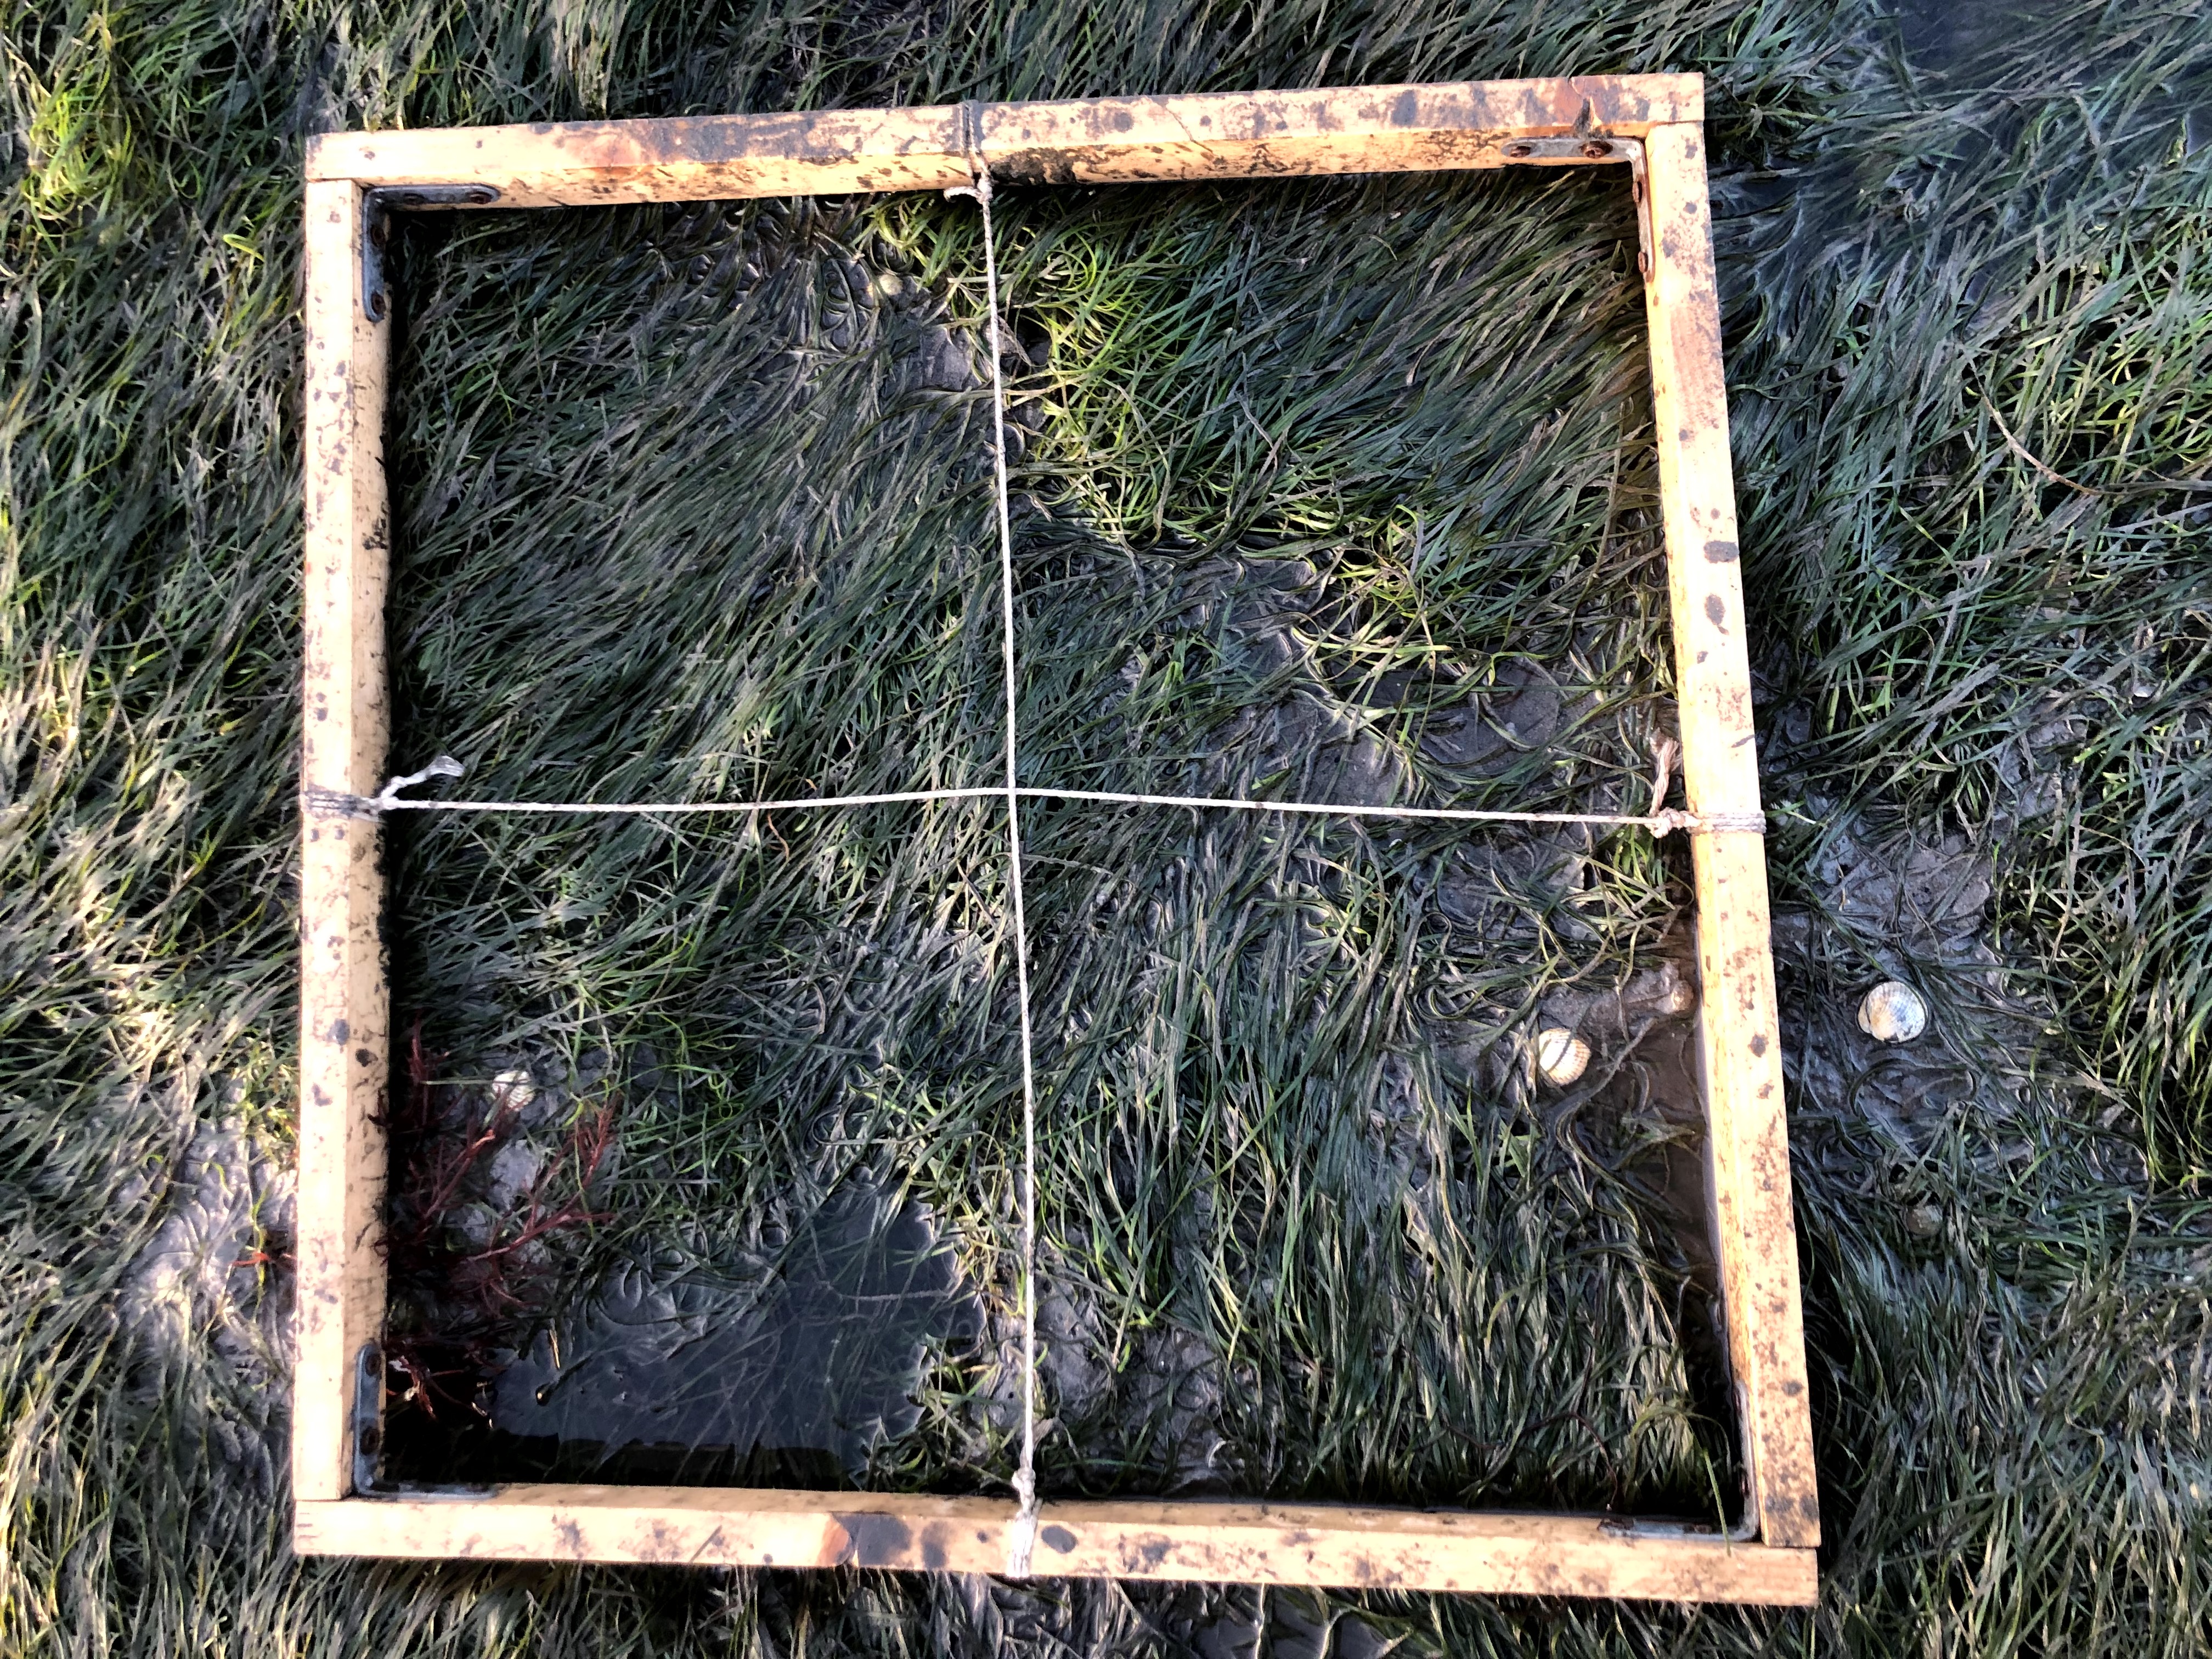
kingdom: Plantae
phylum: Rhodophyta
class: Florideophyceae
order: Gracilariales
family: Gracilariaceae
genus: Gracilaria
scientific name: Gracilaria vermiculophylla
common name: Algae
